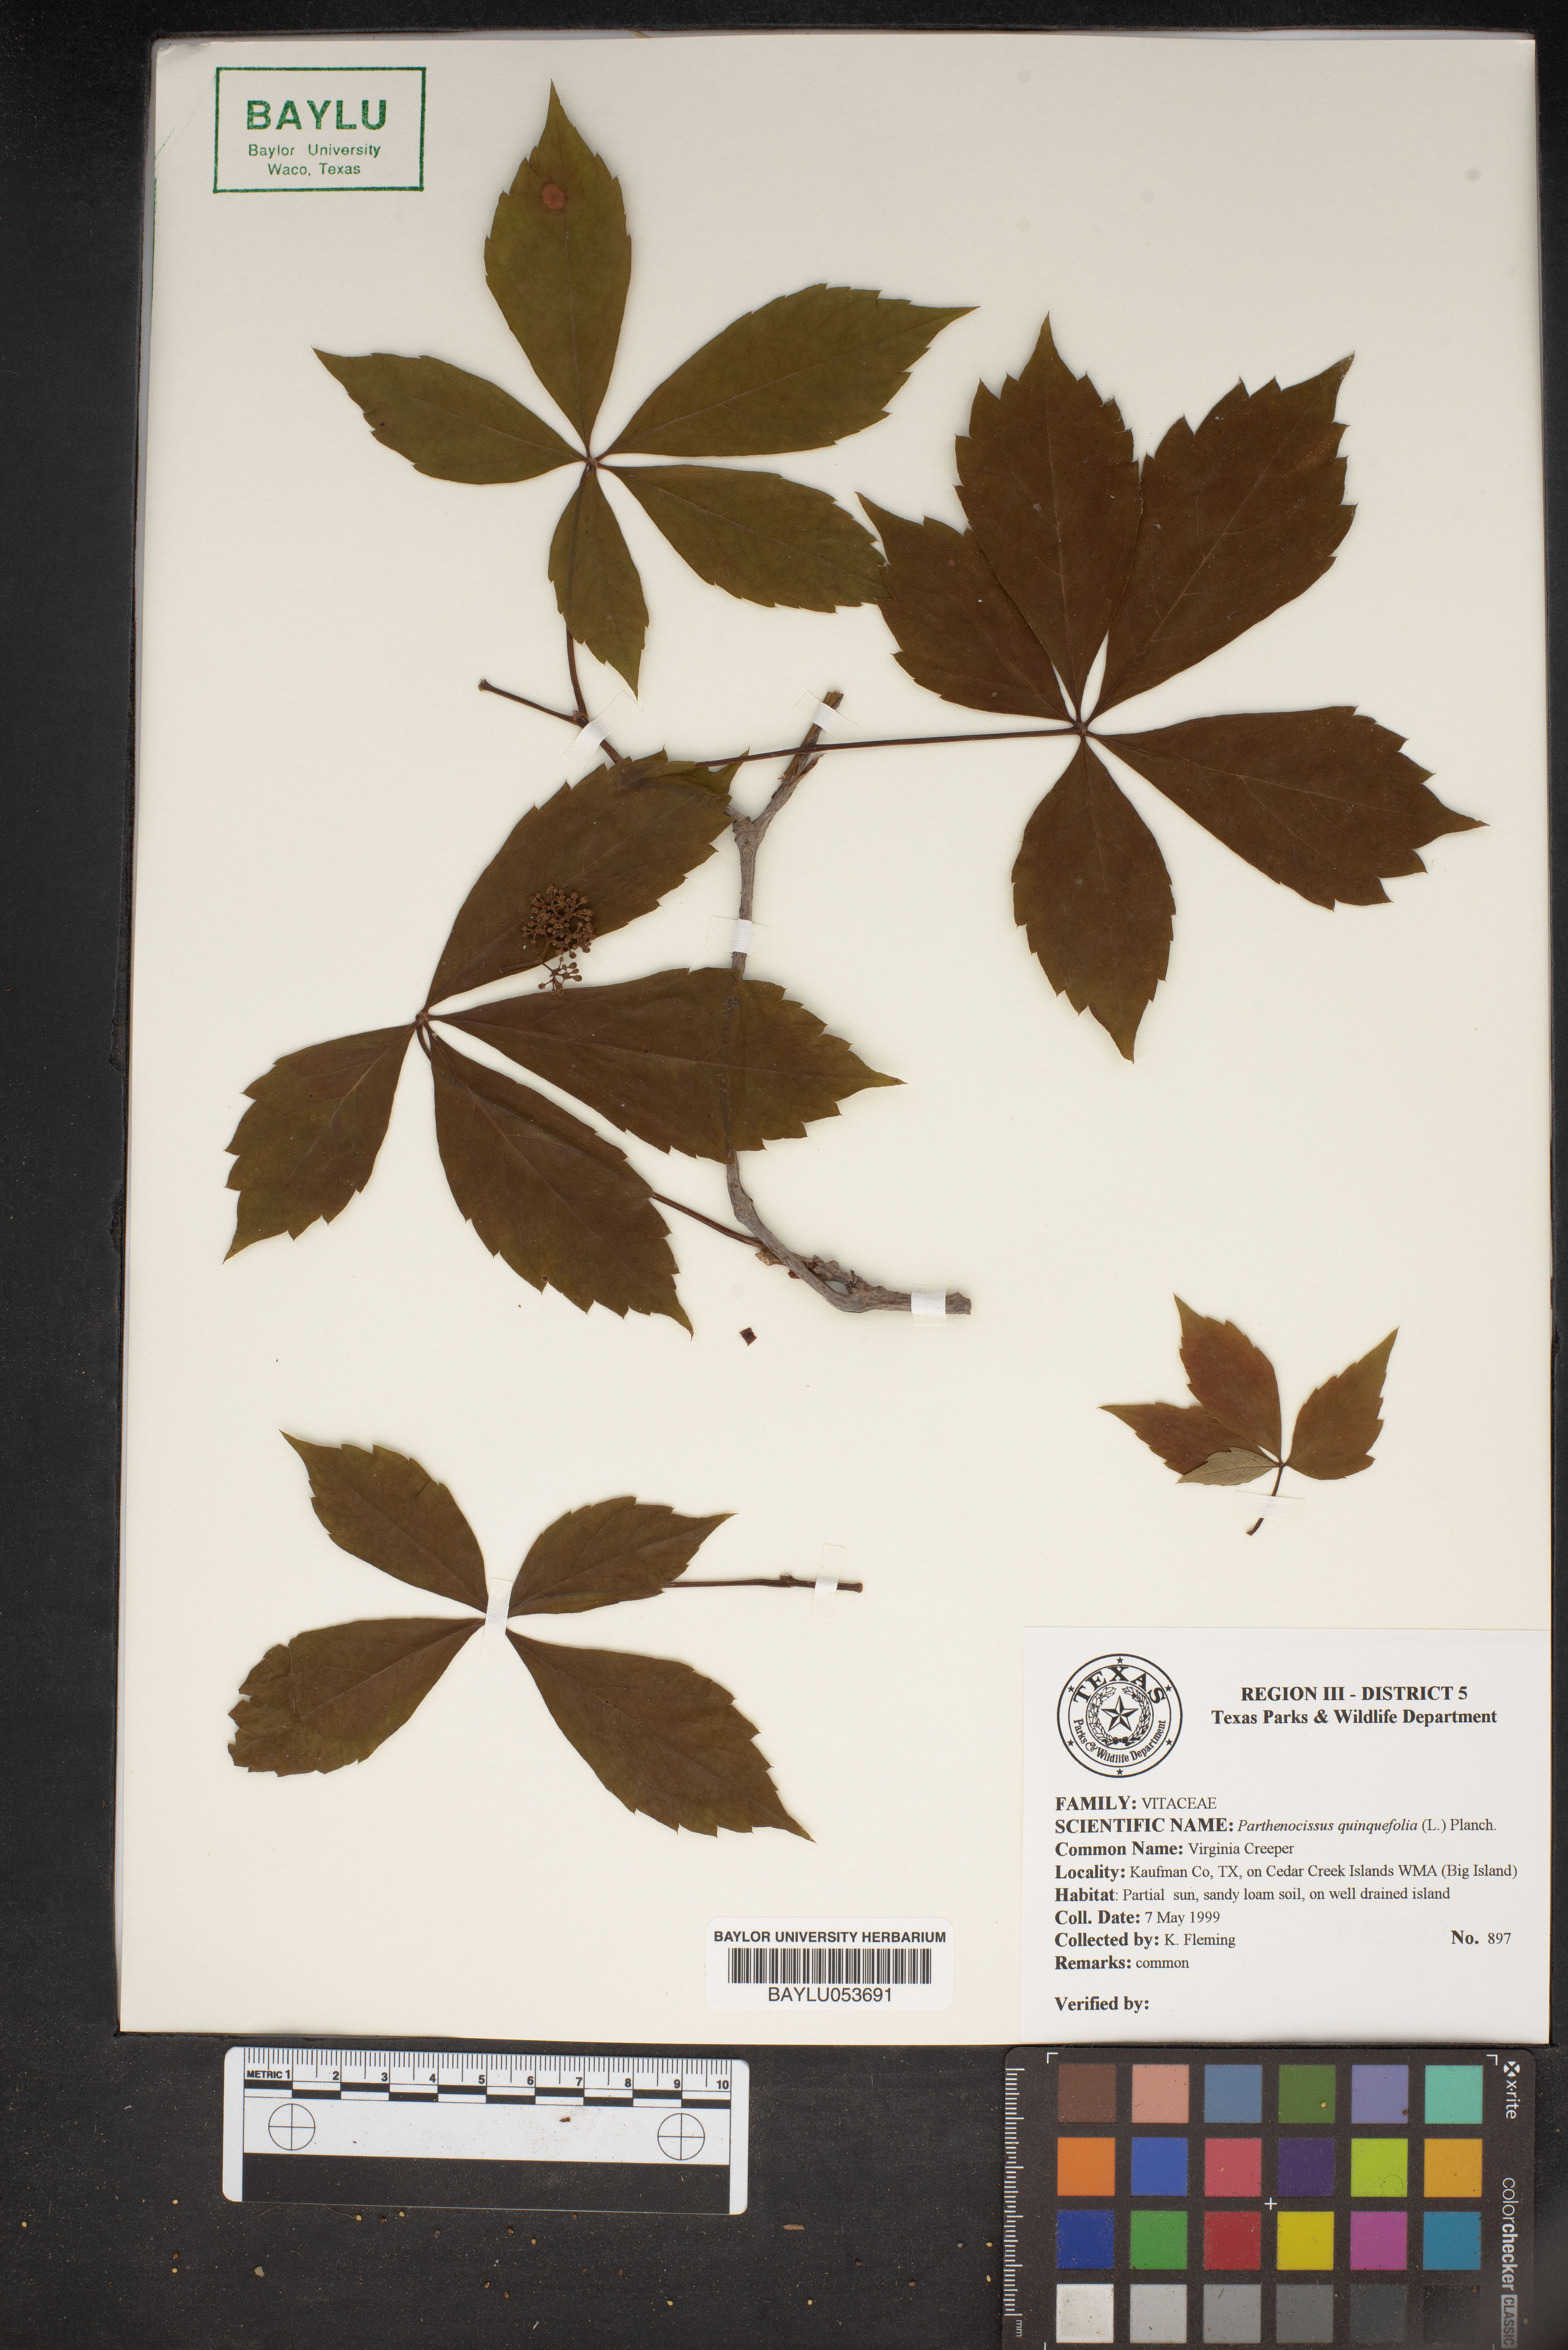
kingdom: Plantae
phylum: Tracheophyta
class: Magnoliopsida
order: Vitales
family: Vitaceae
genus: Parthenocissus
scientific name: Parthenocissus quinquefolia
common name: Virginia-creeper
